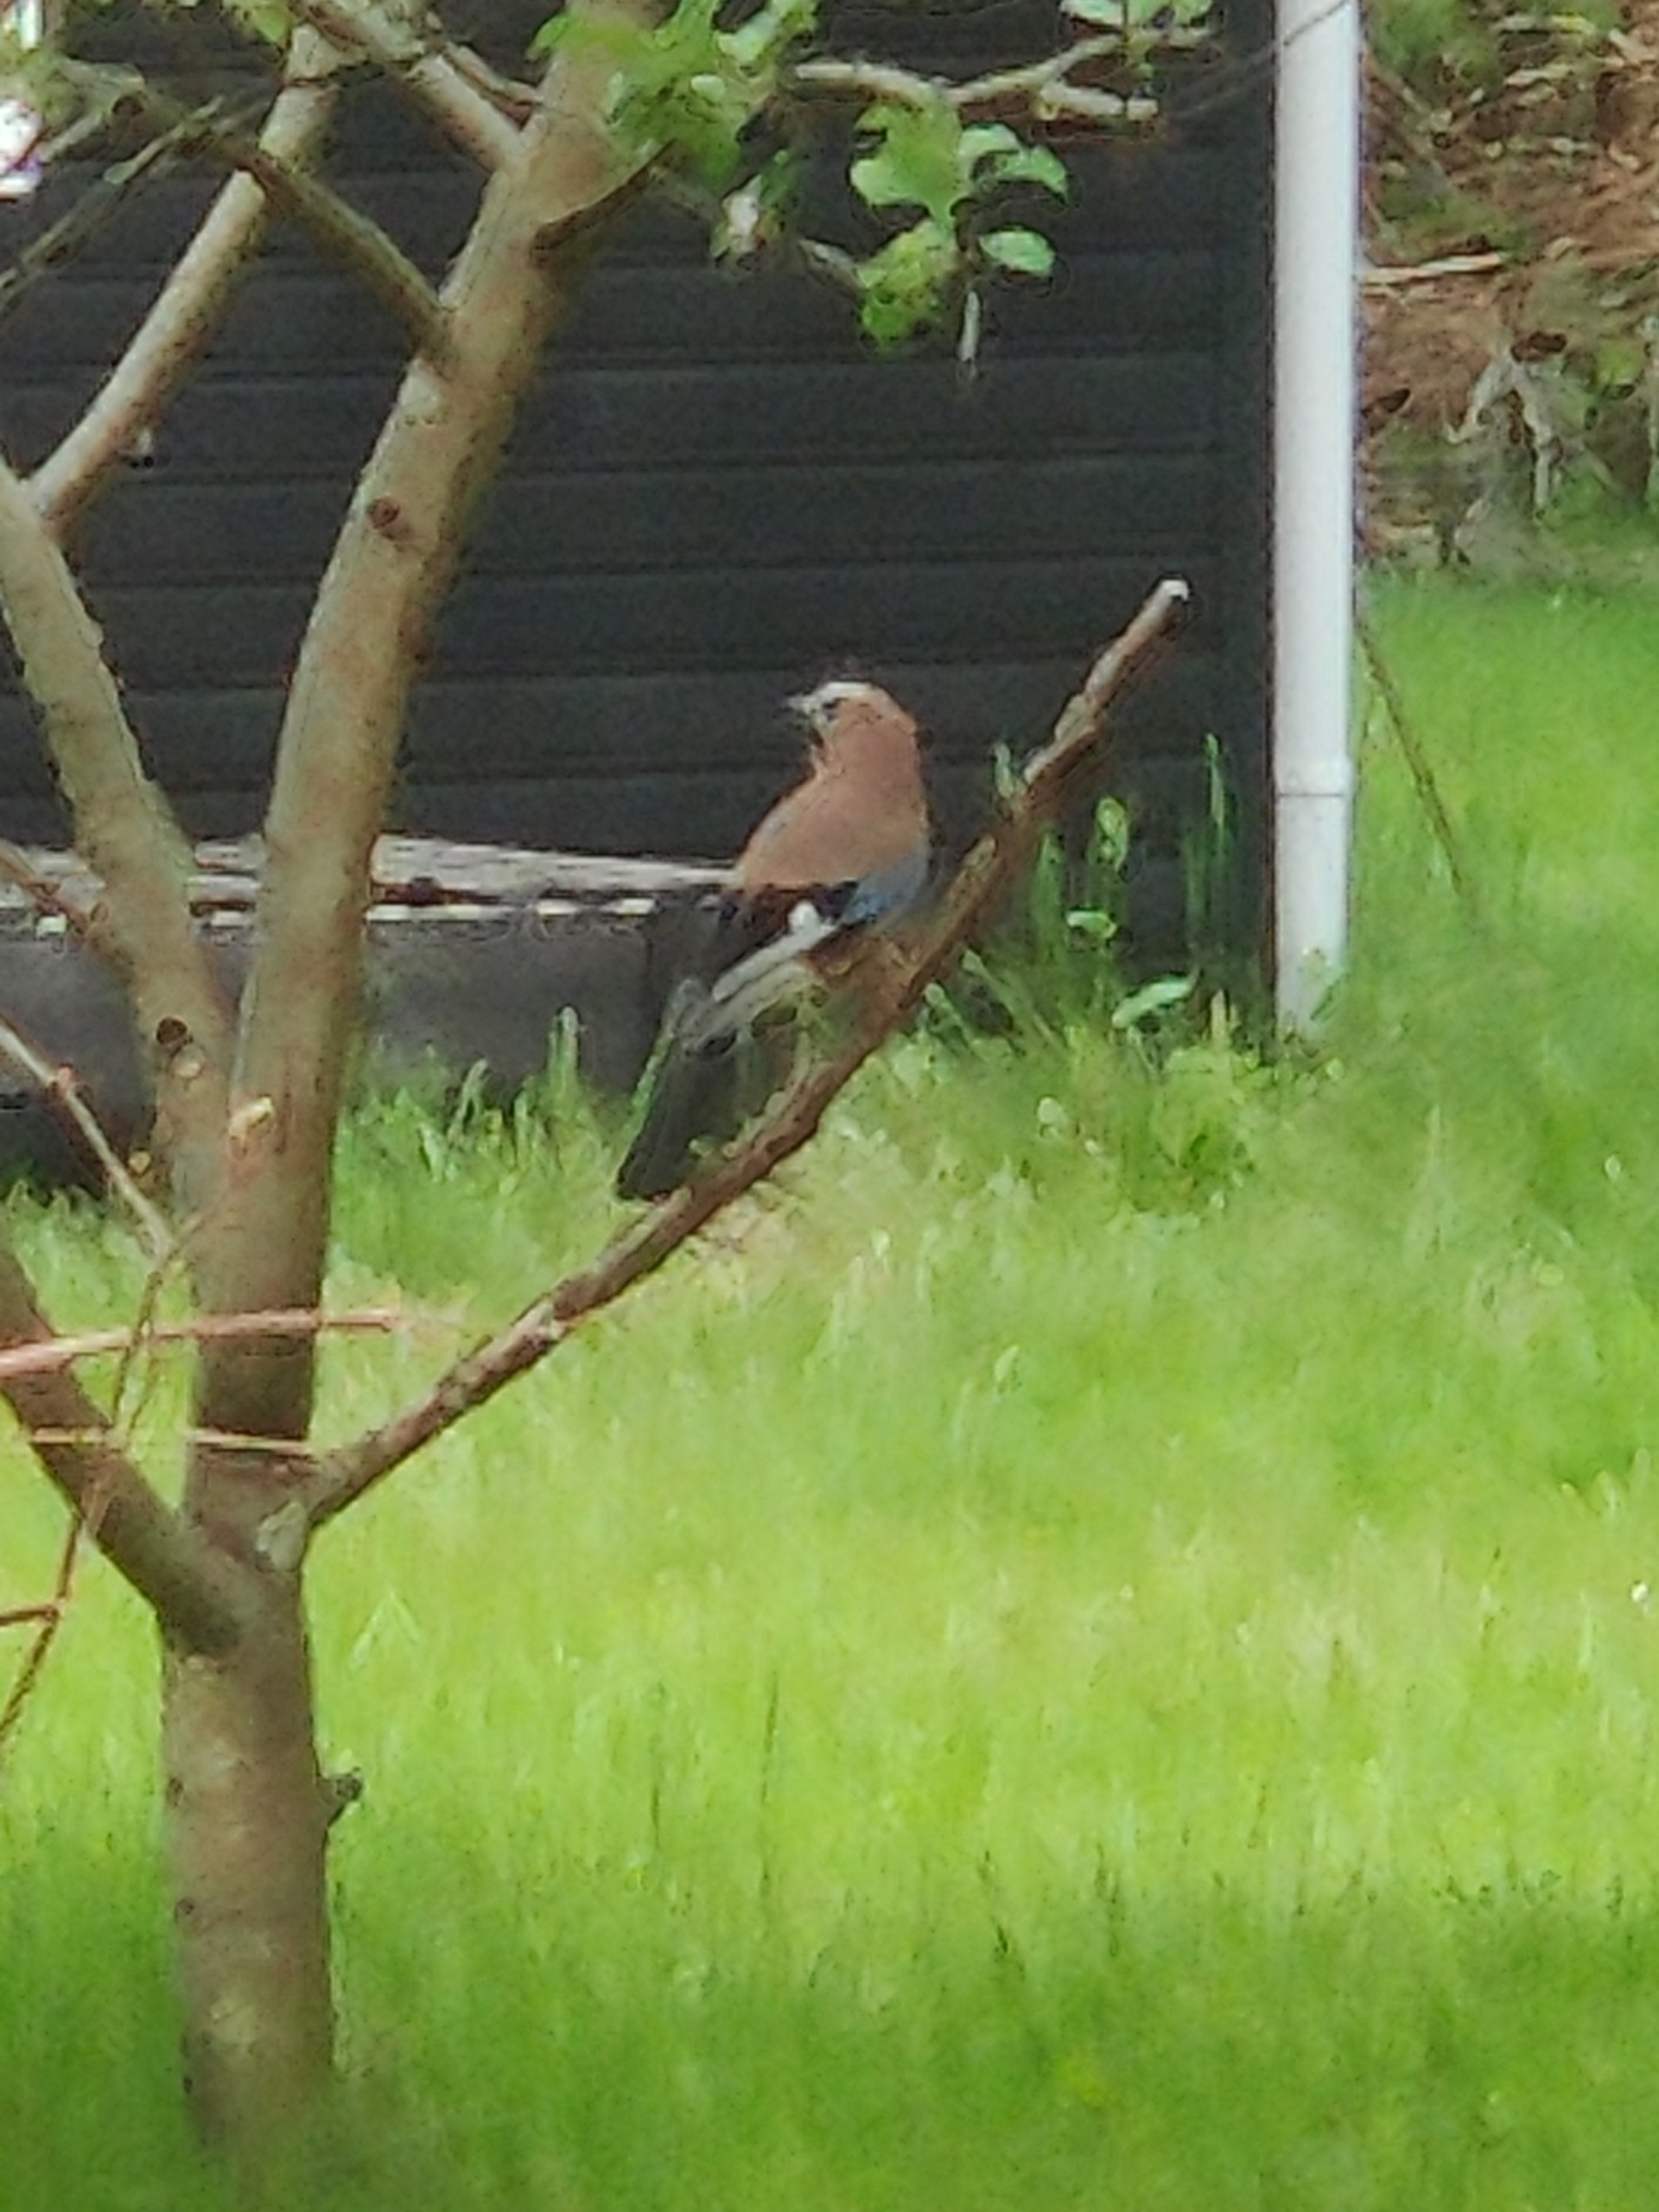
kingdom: Animalia
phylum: Chordata
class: Aves
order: Passeriformes
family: Corvidae
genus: Garrulus
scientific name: Garrulus glandarius
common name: Skovskade
